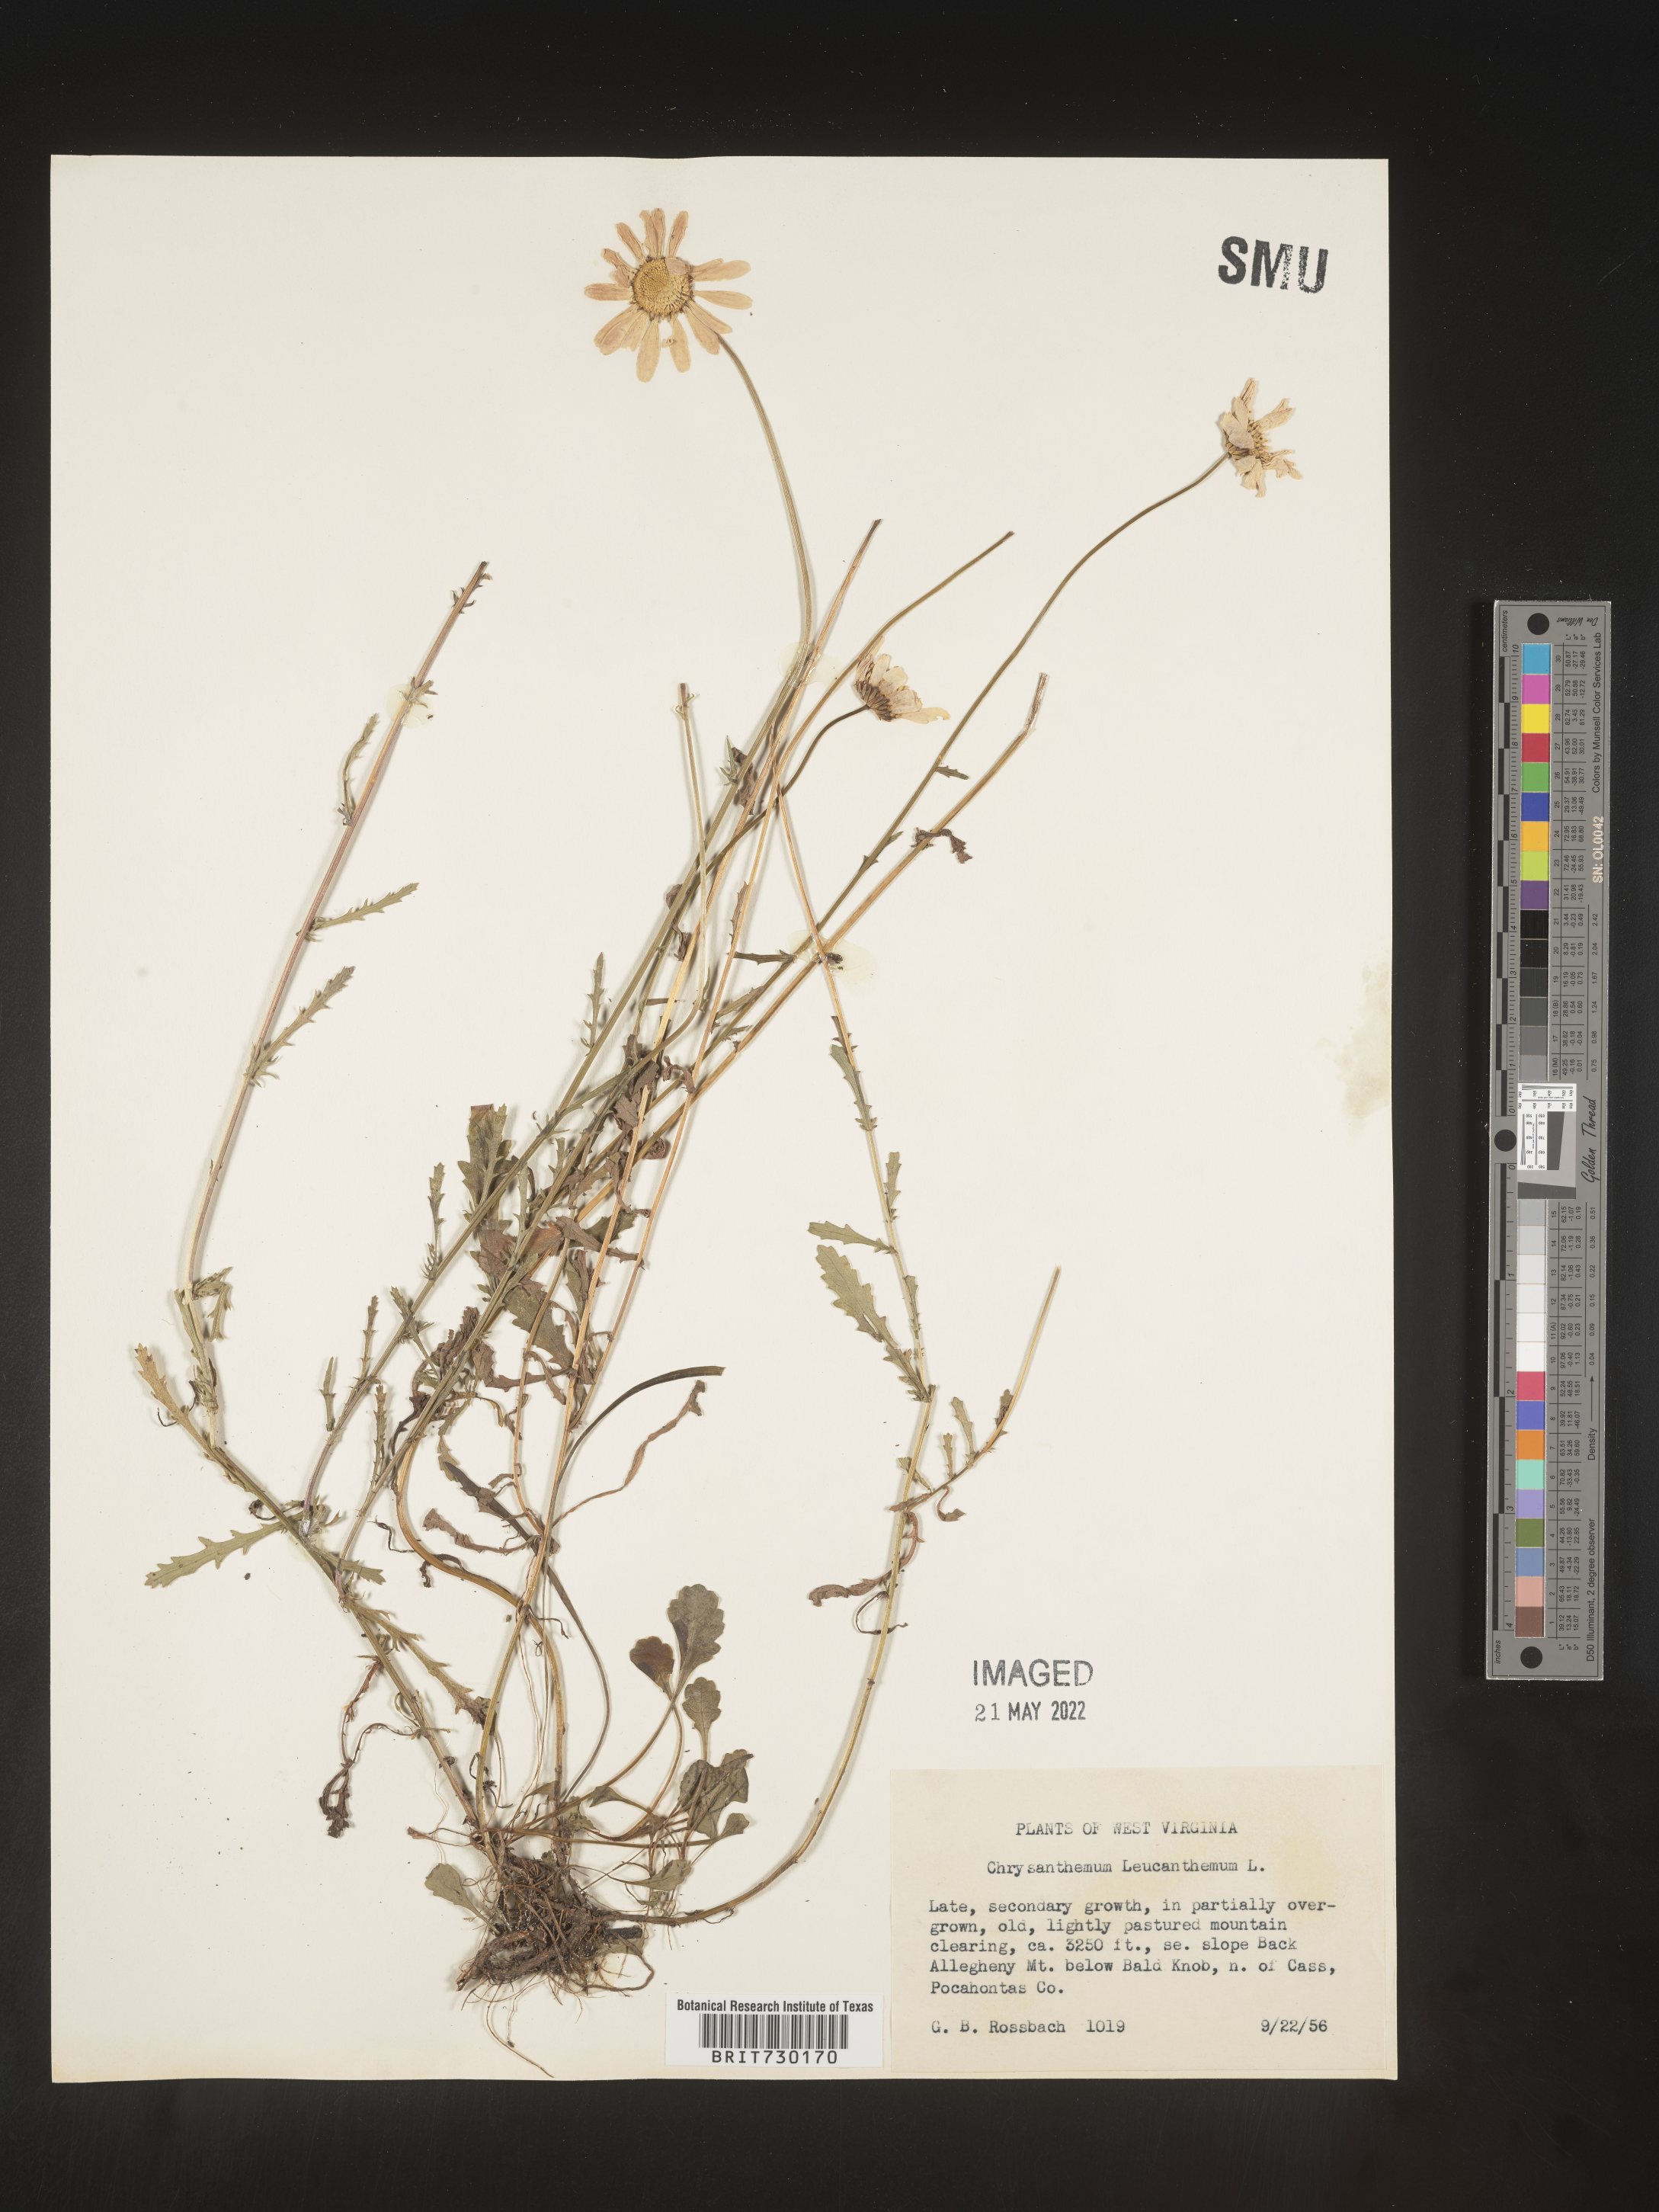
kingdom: Plantae
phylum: Tracheophyta
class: Magnoliopsida
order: Asterales
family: Asteraceae
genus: Leucanthemum
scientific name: Leucanthemum vulgare
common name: Oxeye daisy
